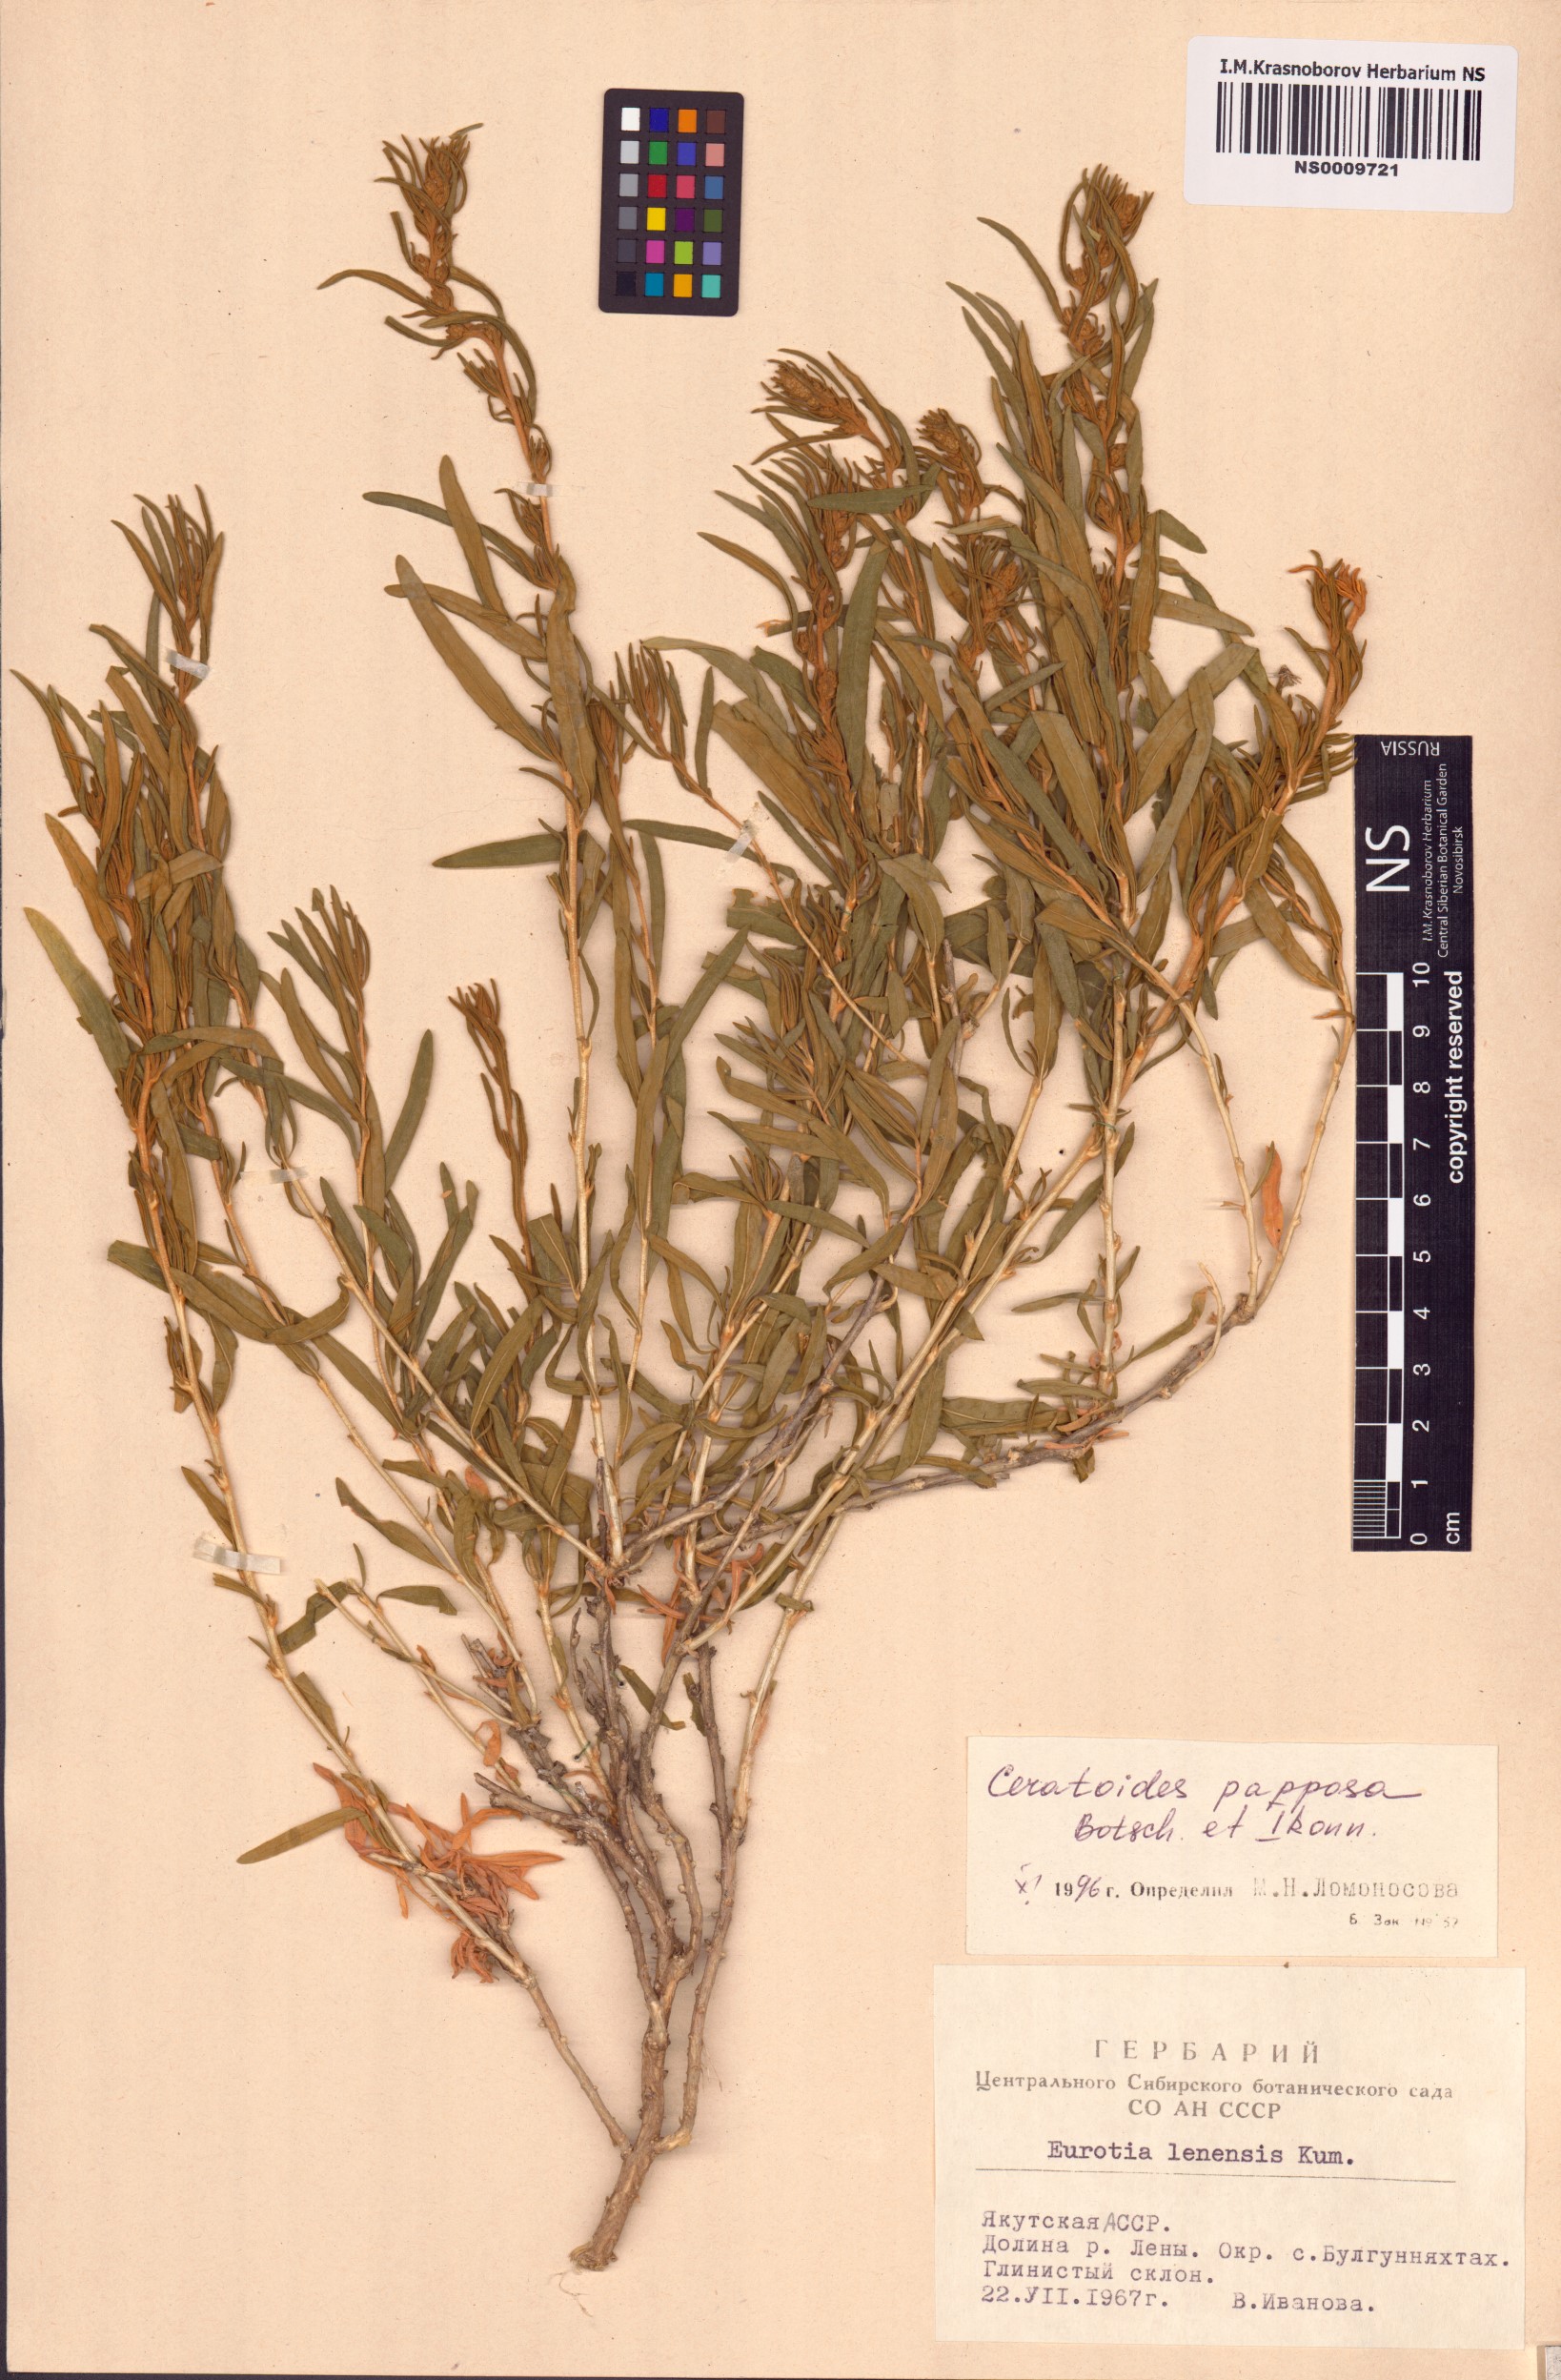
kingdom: Plantae
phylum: Tracheophyta
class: Magnoliopsida
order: Caryophyllales
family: Amaranthaceae
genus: Krascheninnikovia
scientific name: Krascheninnikovia ceratoides
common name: Pamirian winterfat
